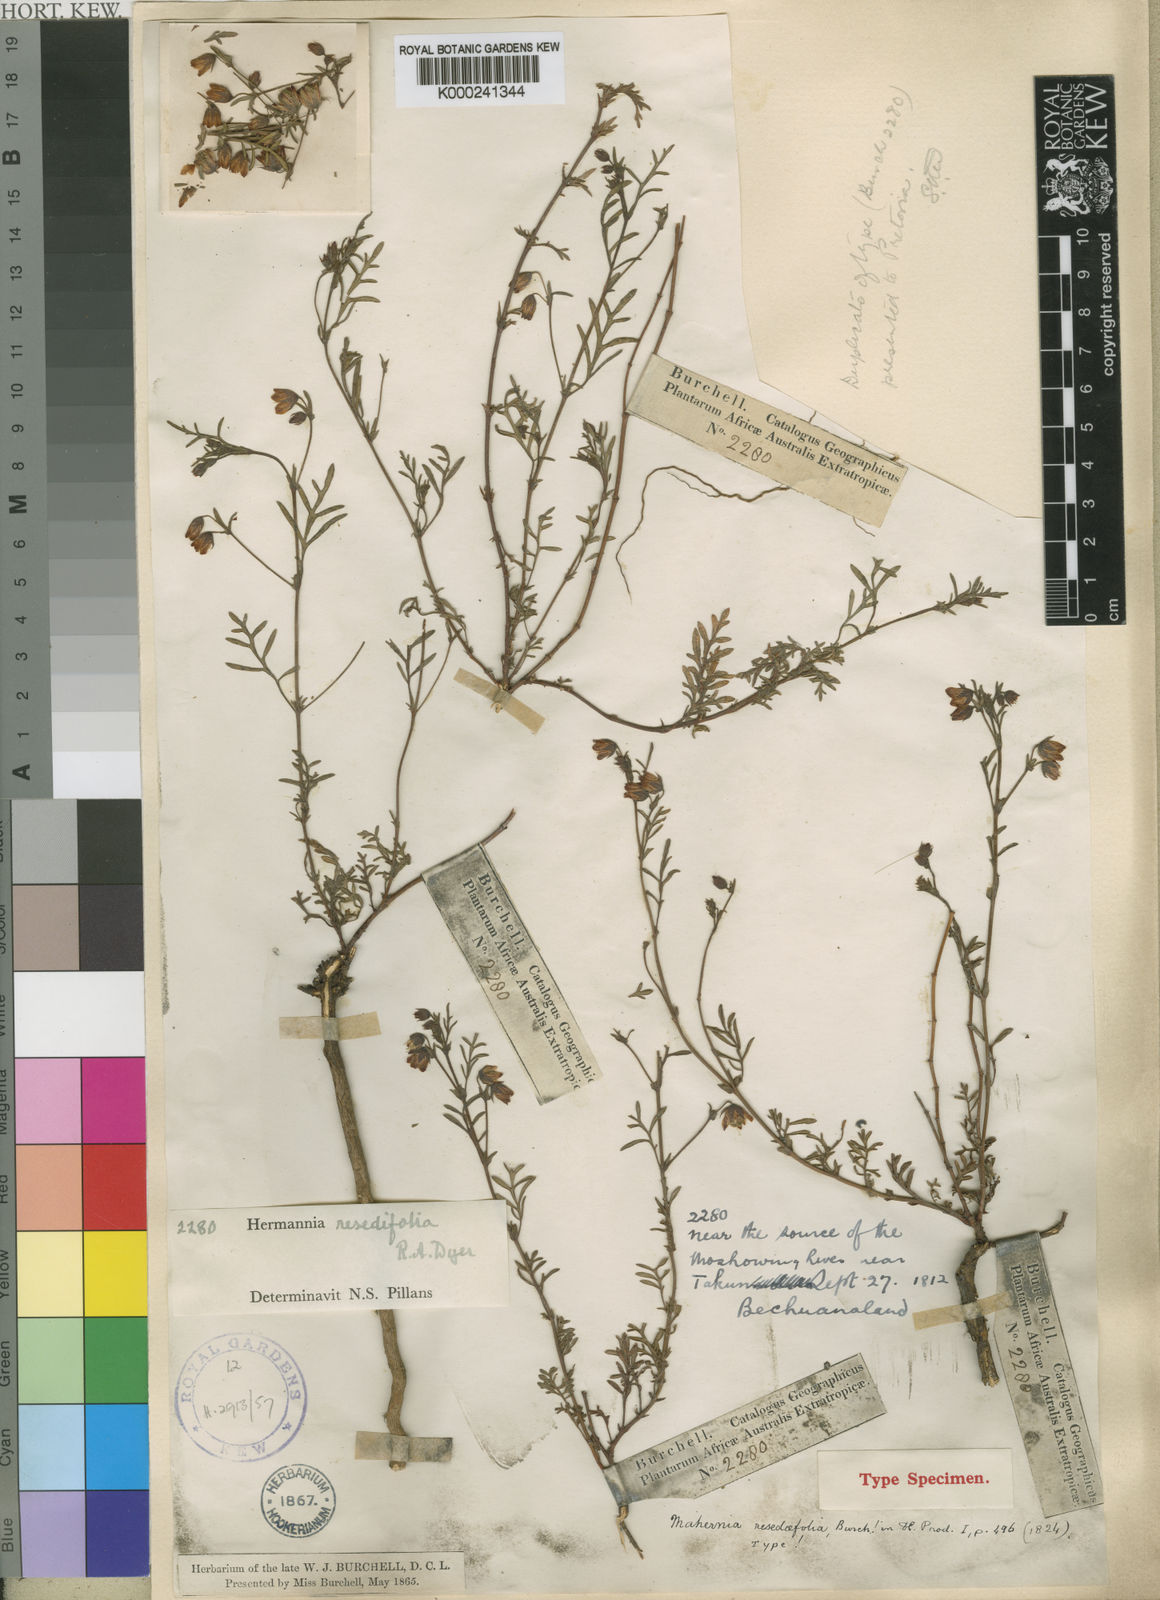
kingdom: Plantae
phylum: Tracheophyta
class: Magnoliopsida
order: Malvales
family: Malvaceae
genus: Hermannia
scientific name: Hermannia erodioides
